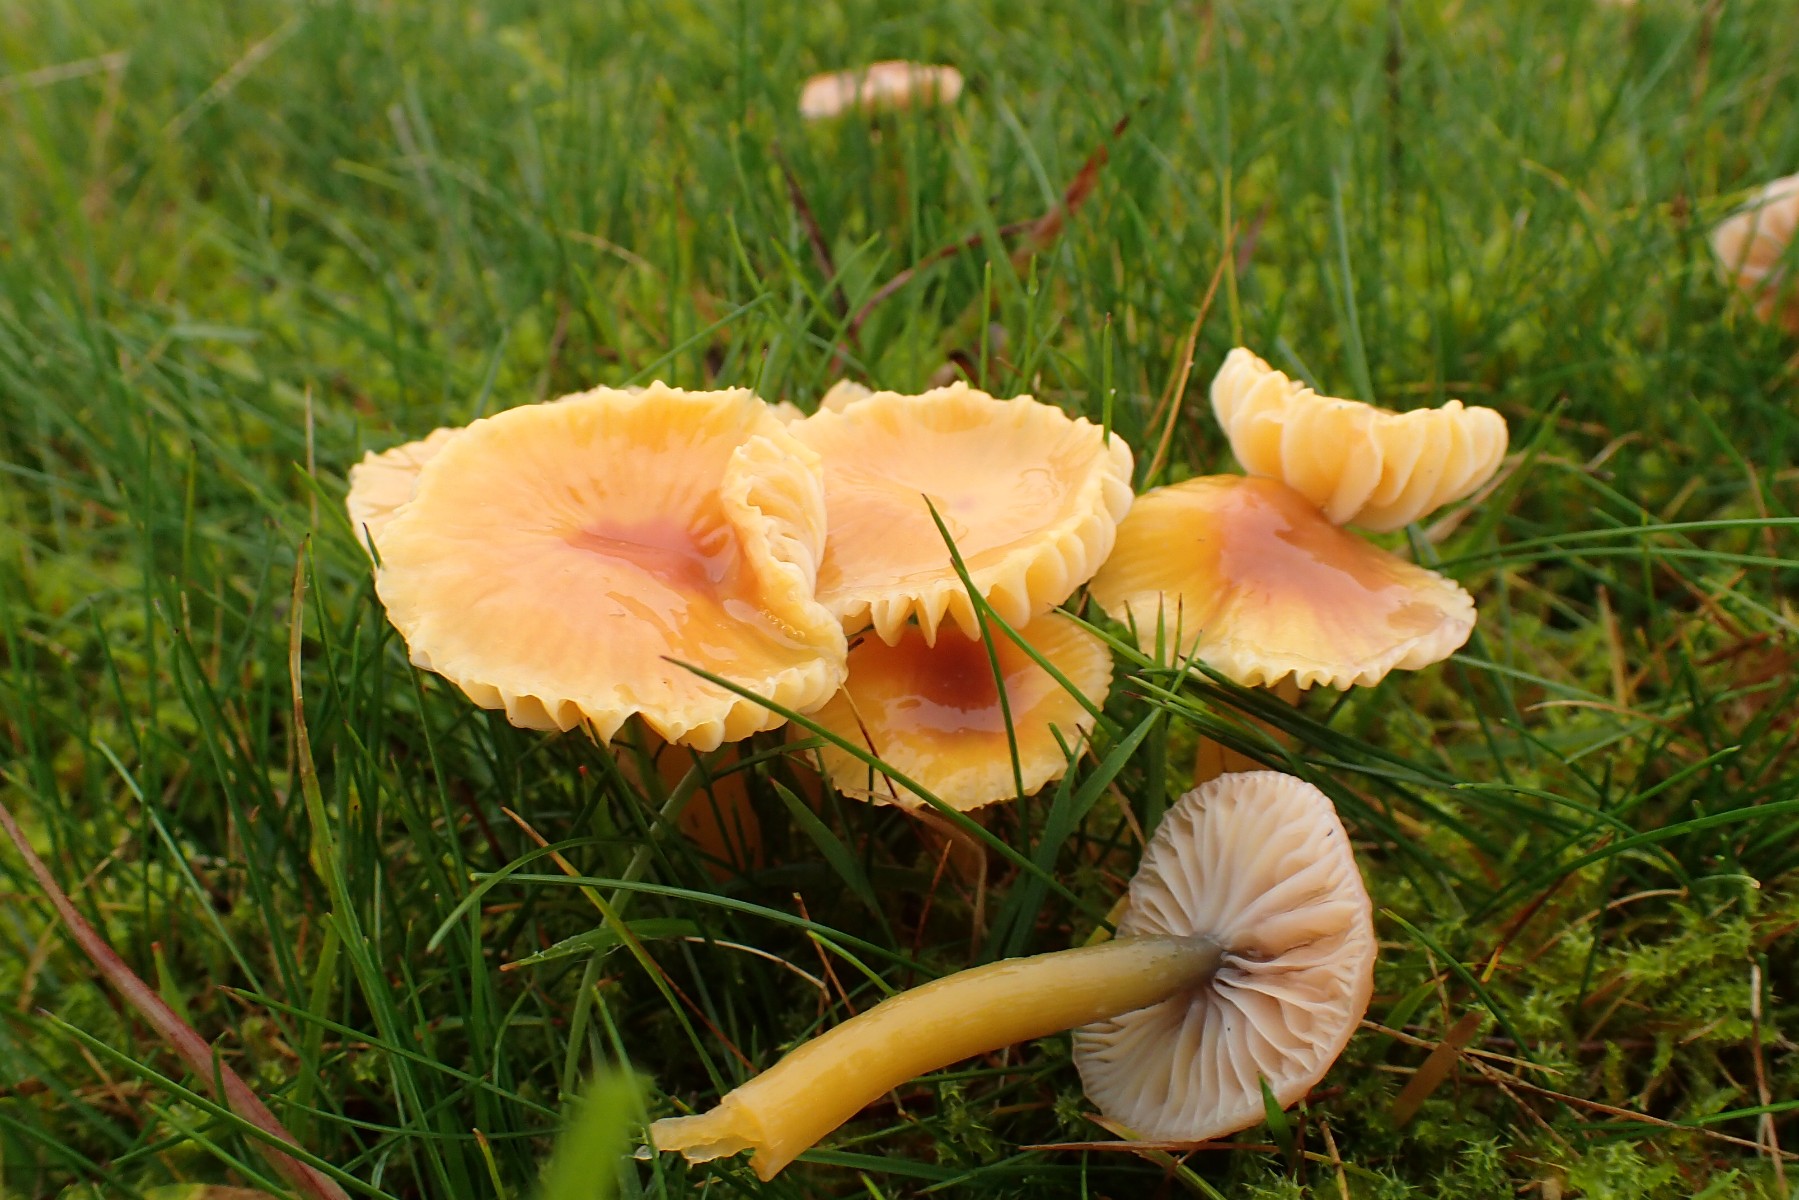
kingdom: Fungi
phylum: Basidiomycota
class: Agaricomycetes
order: Agaricales
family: Hygrophoraceae
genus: Gliophorus
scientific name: Gliophorus laetus
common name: brusk-vokshat
